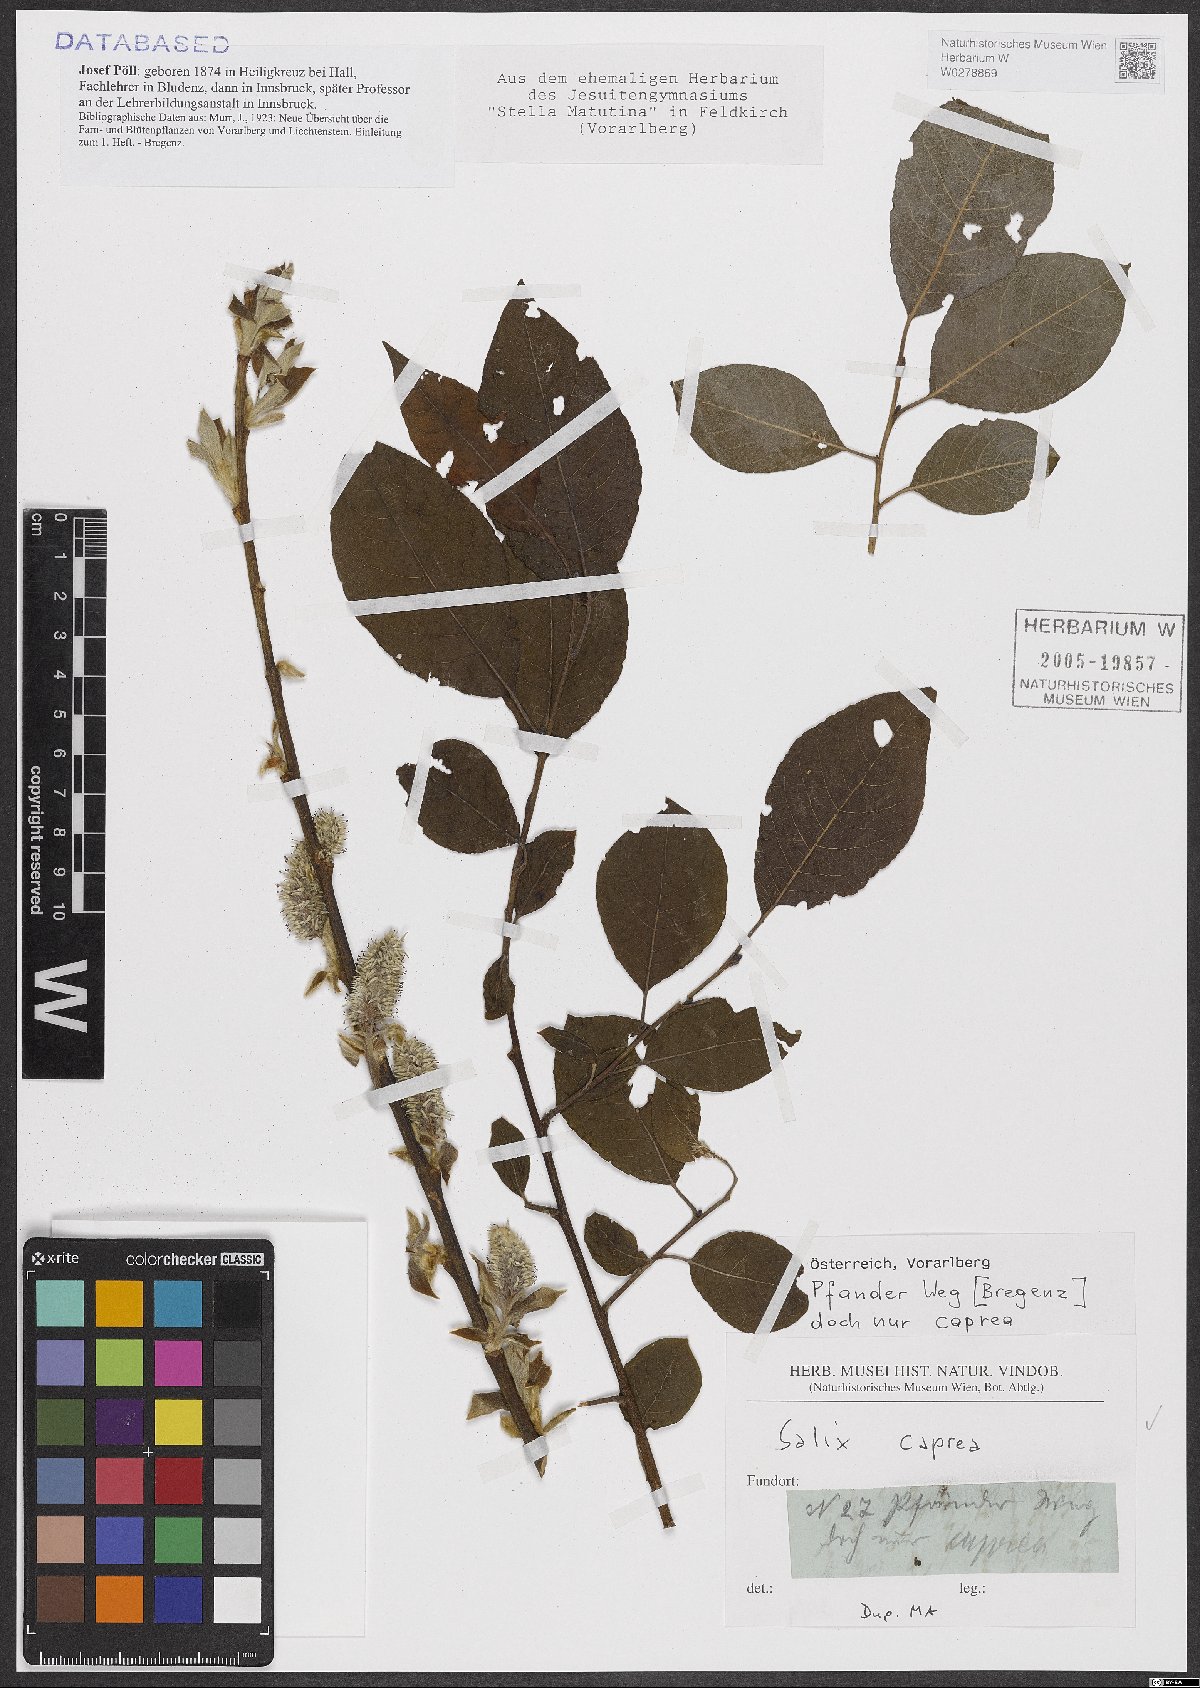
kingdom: Plantae
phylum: Tracheophyta
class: Magnoliopsida
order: Malpighiales
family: Salicaceae
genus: Salix
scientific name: Salix caprea
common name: Goat willow
